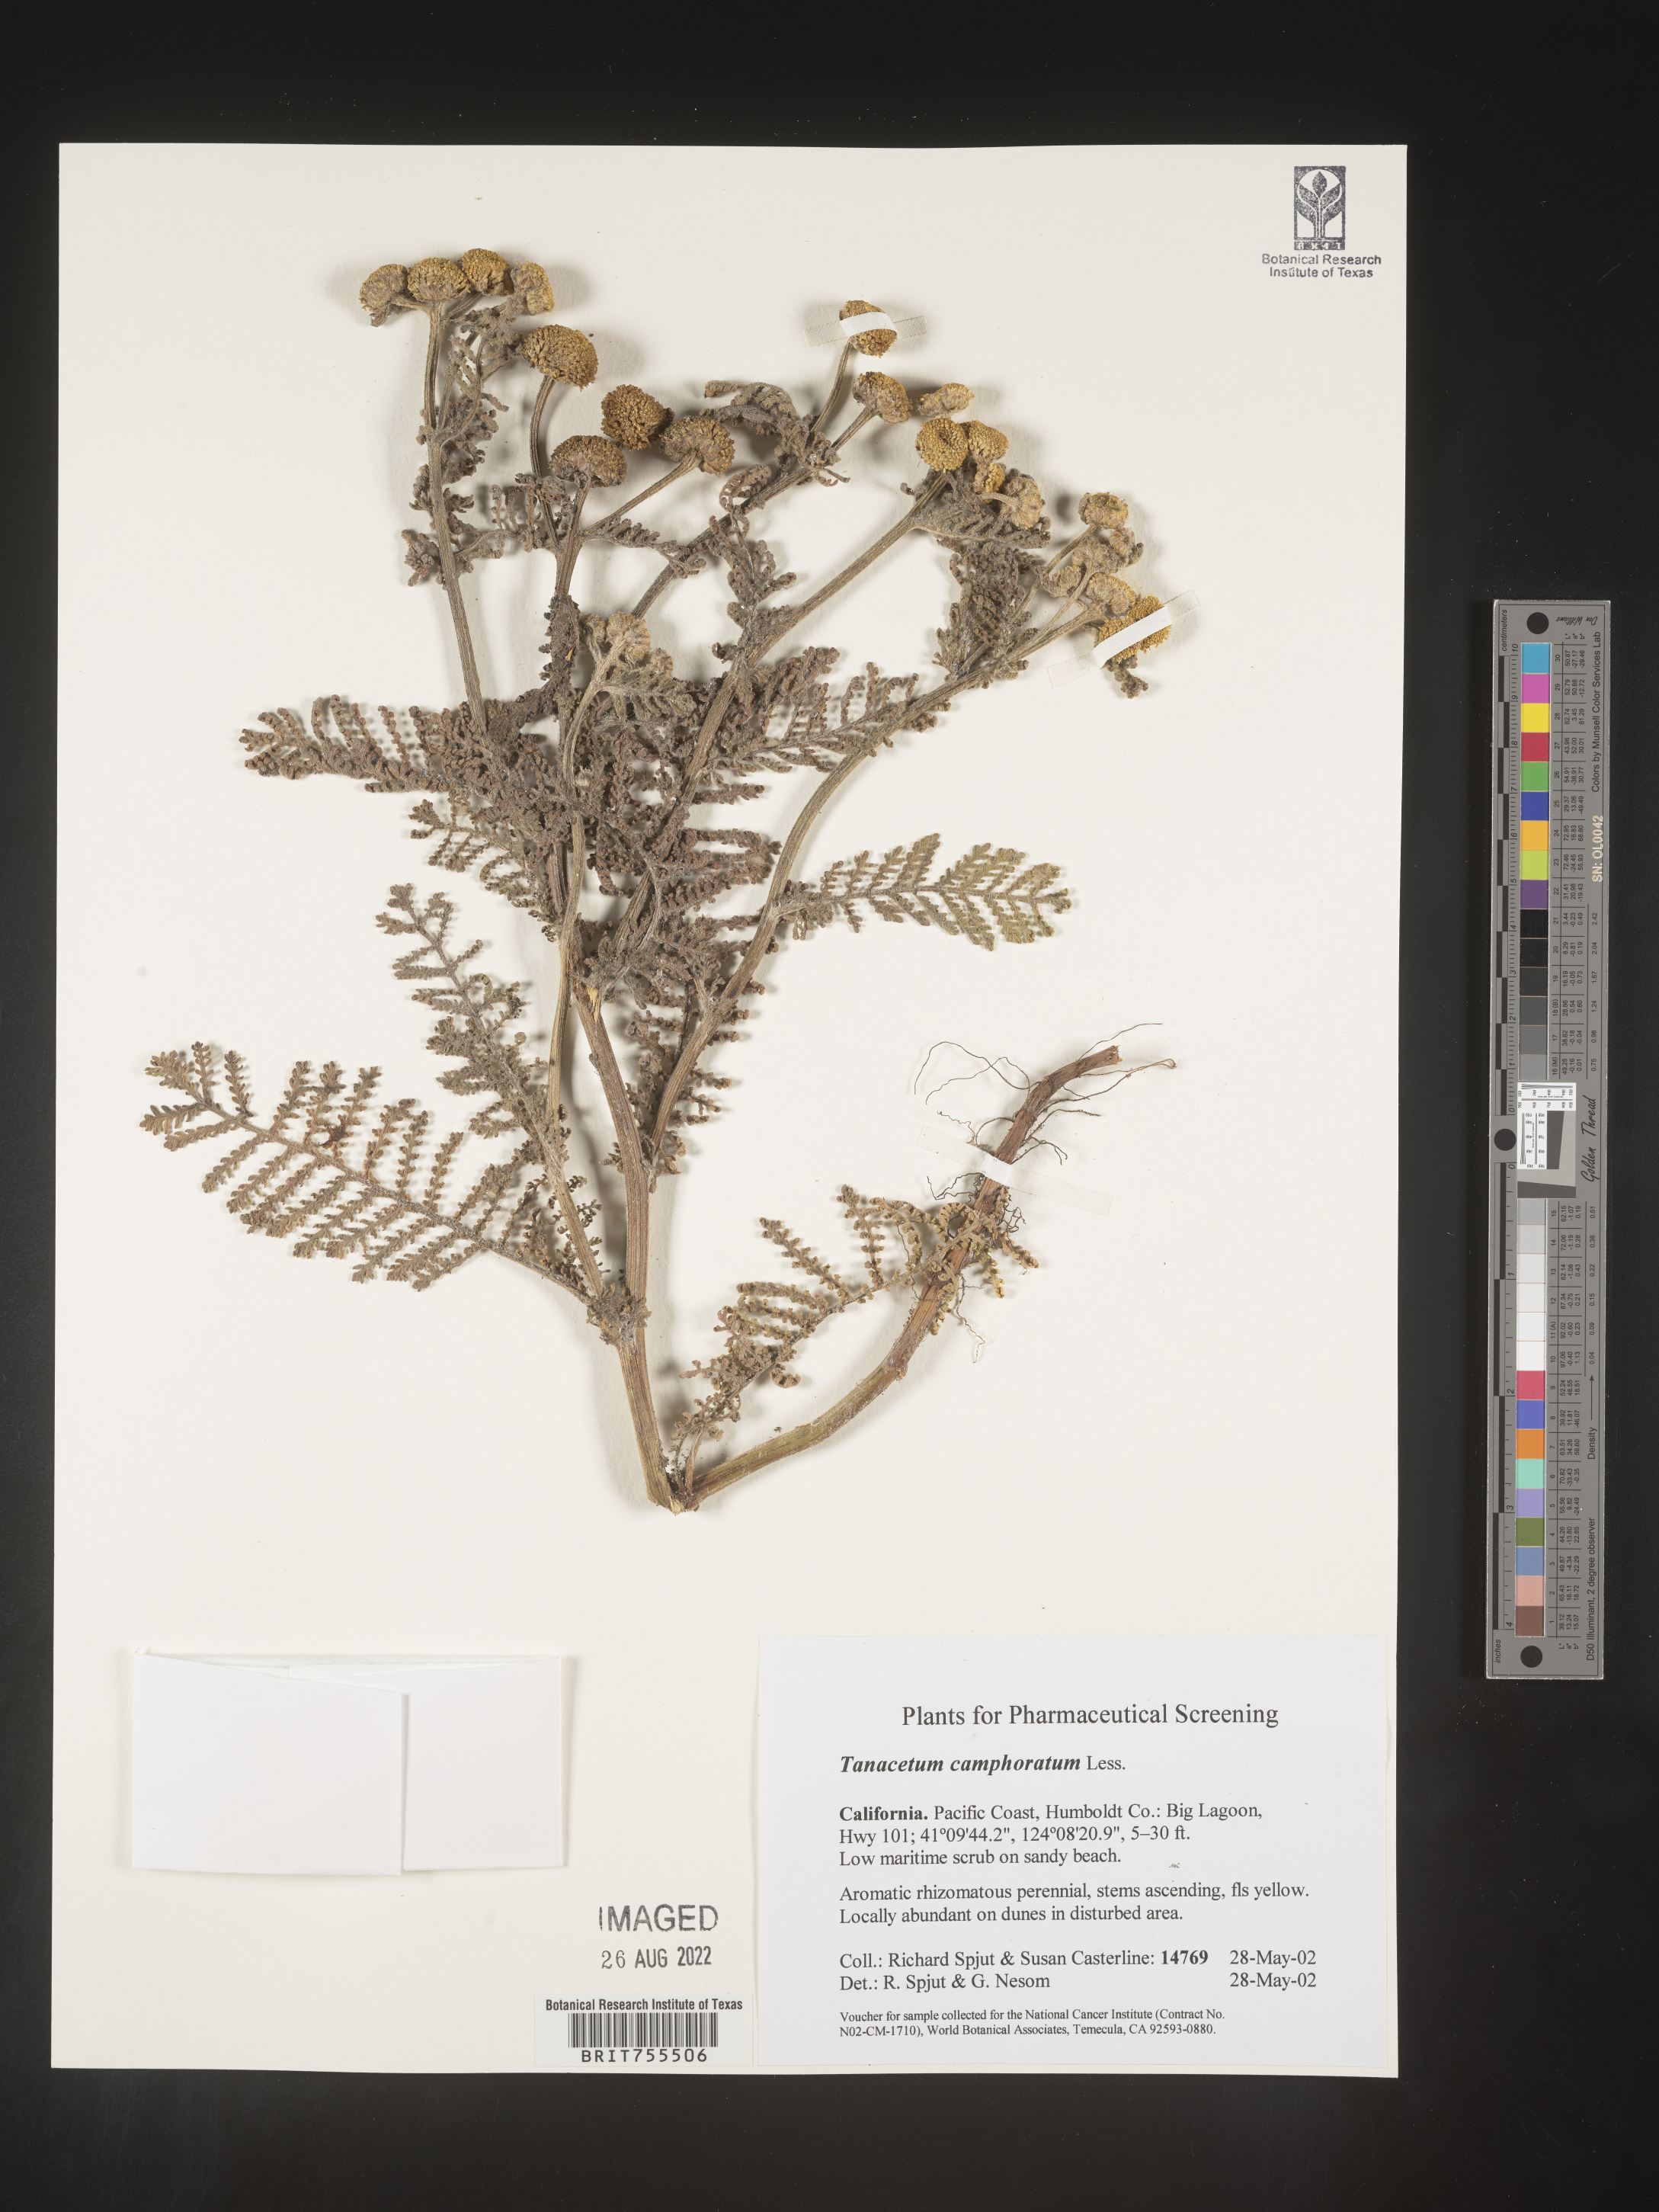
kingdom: Plantae
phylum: Tracheophyta
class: Magnoliopsida
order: Asterales
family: Asteraceae
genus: Tanacetum
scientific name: Tanacetum bipinnatum
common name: Dwarf tansy
